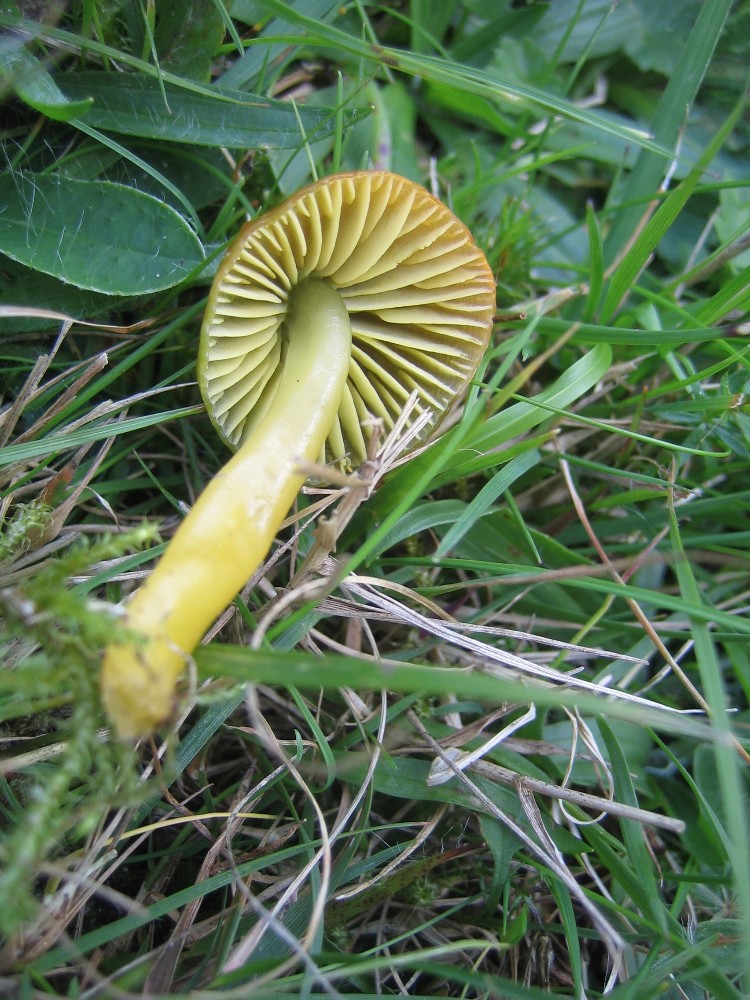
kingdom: Fungi
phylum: Basidiomycota
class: Agaricomycetes
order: Agaricales
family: Hygrophoraceae
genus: Gliophorus
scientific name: Gliophorus psittacinus
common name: papegøje-vokshat
